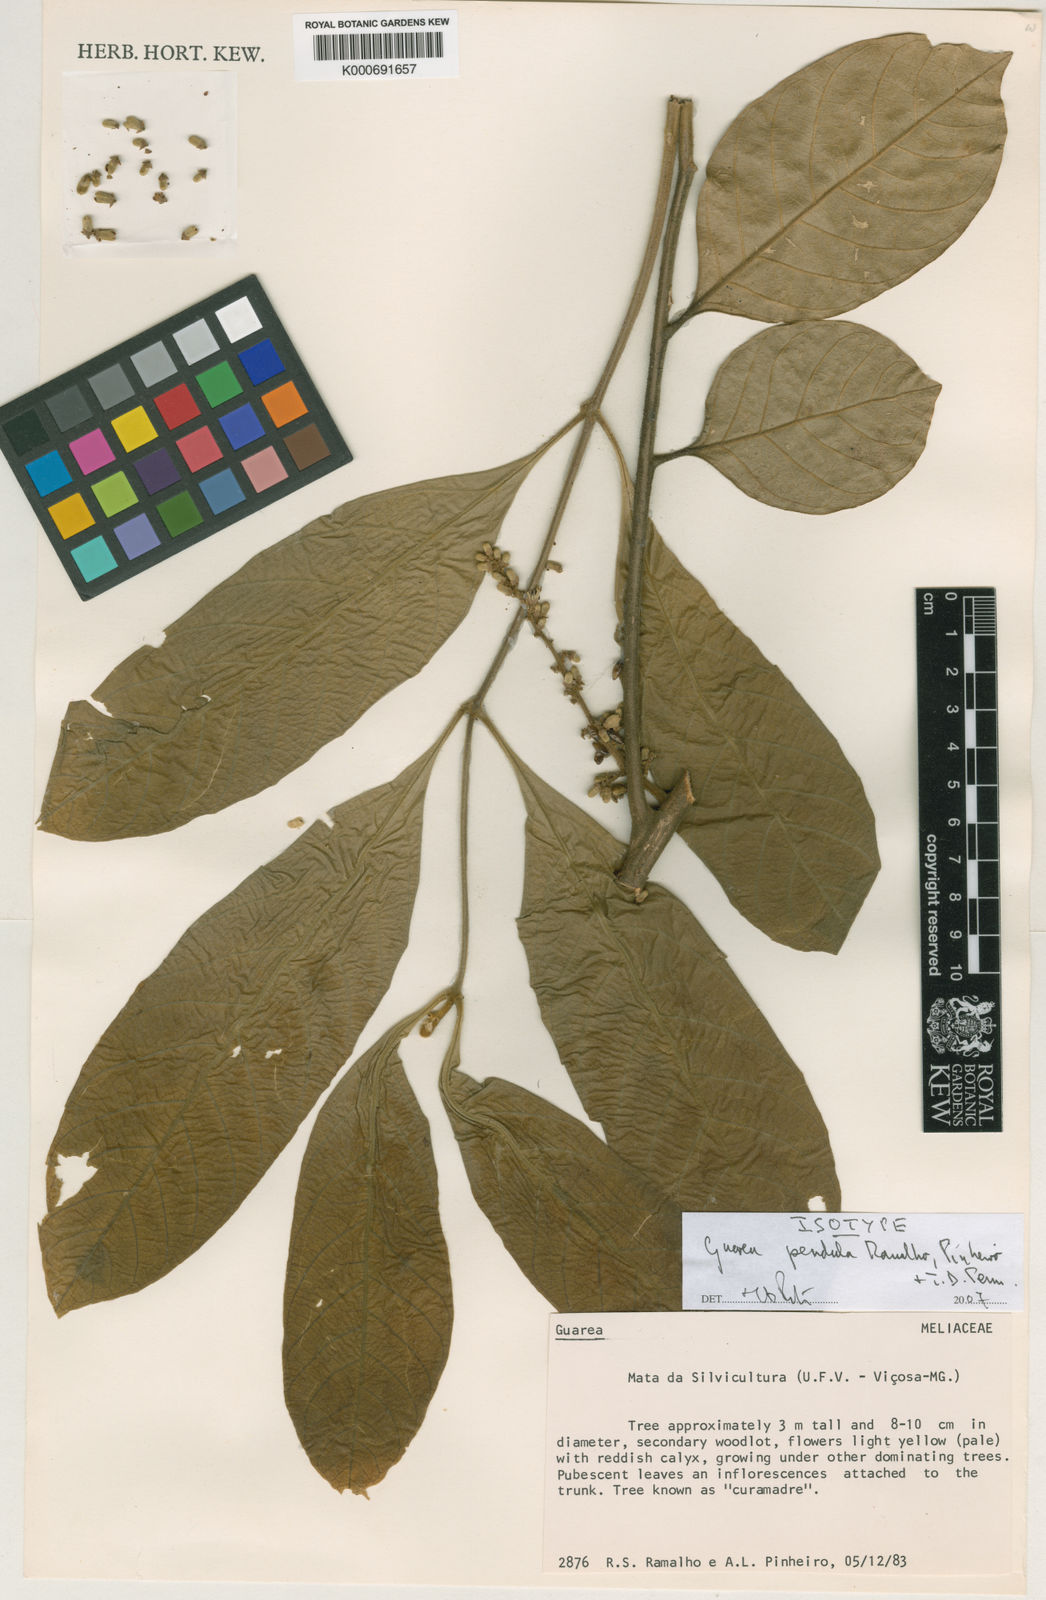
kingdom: Plantae
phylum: Tracheophyta
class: Magnoliopsida
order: Sapindales
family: Meliaceae
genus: Guarea
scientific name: Guarea
